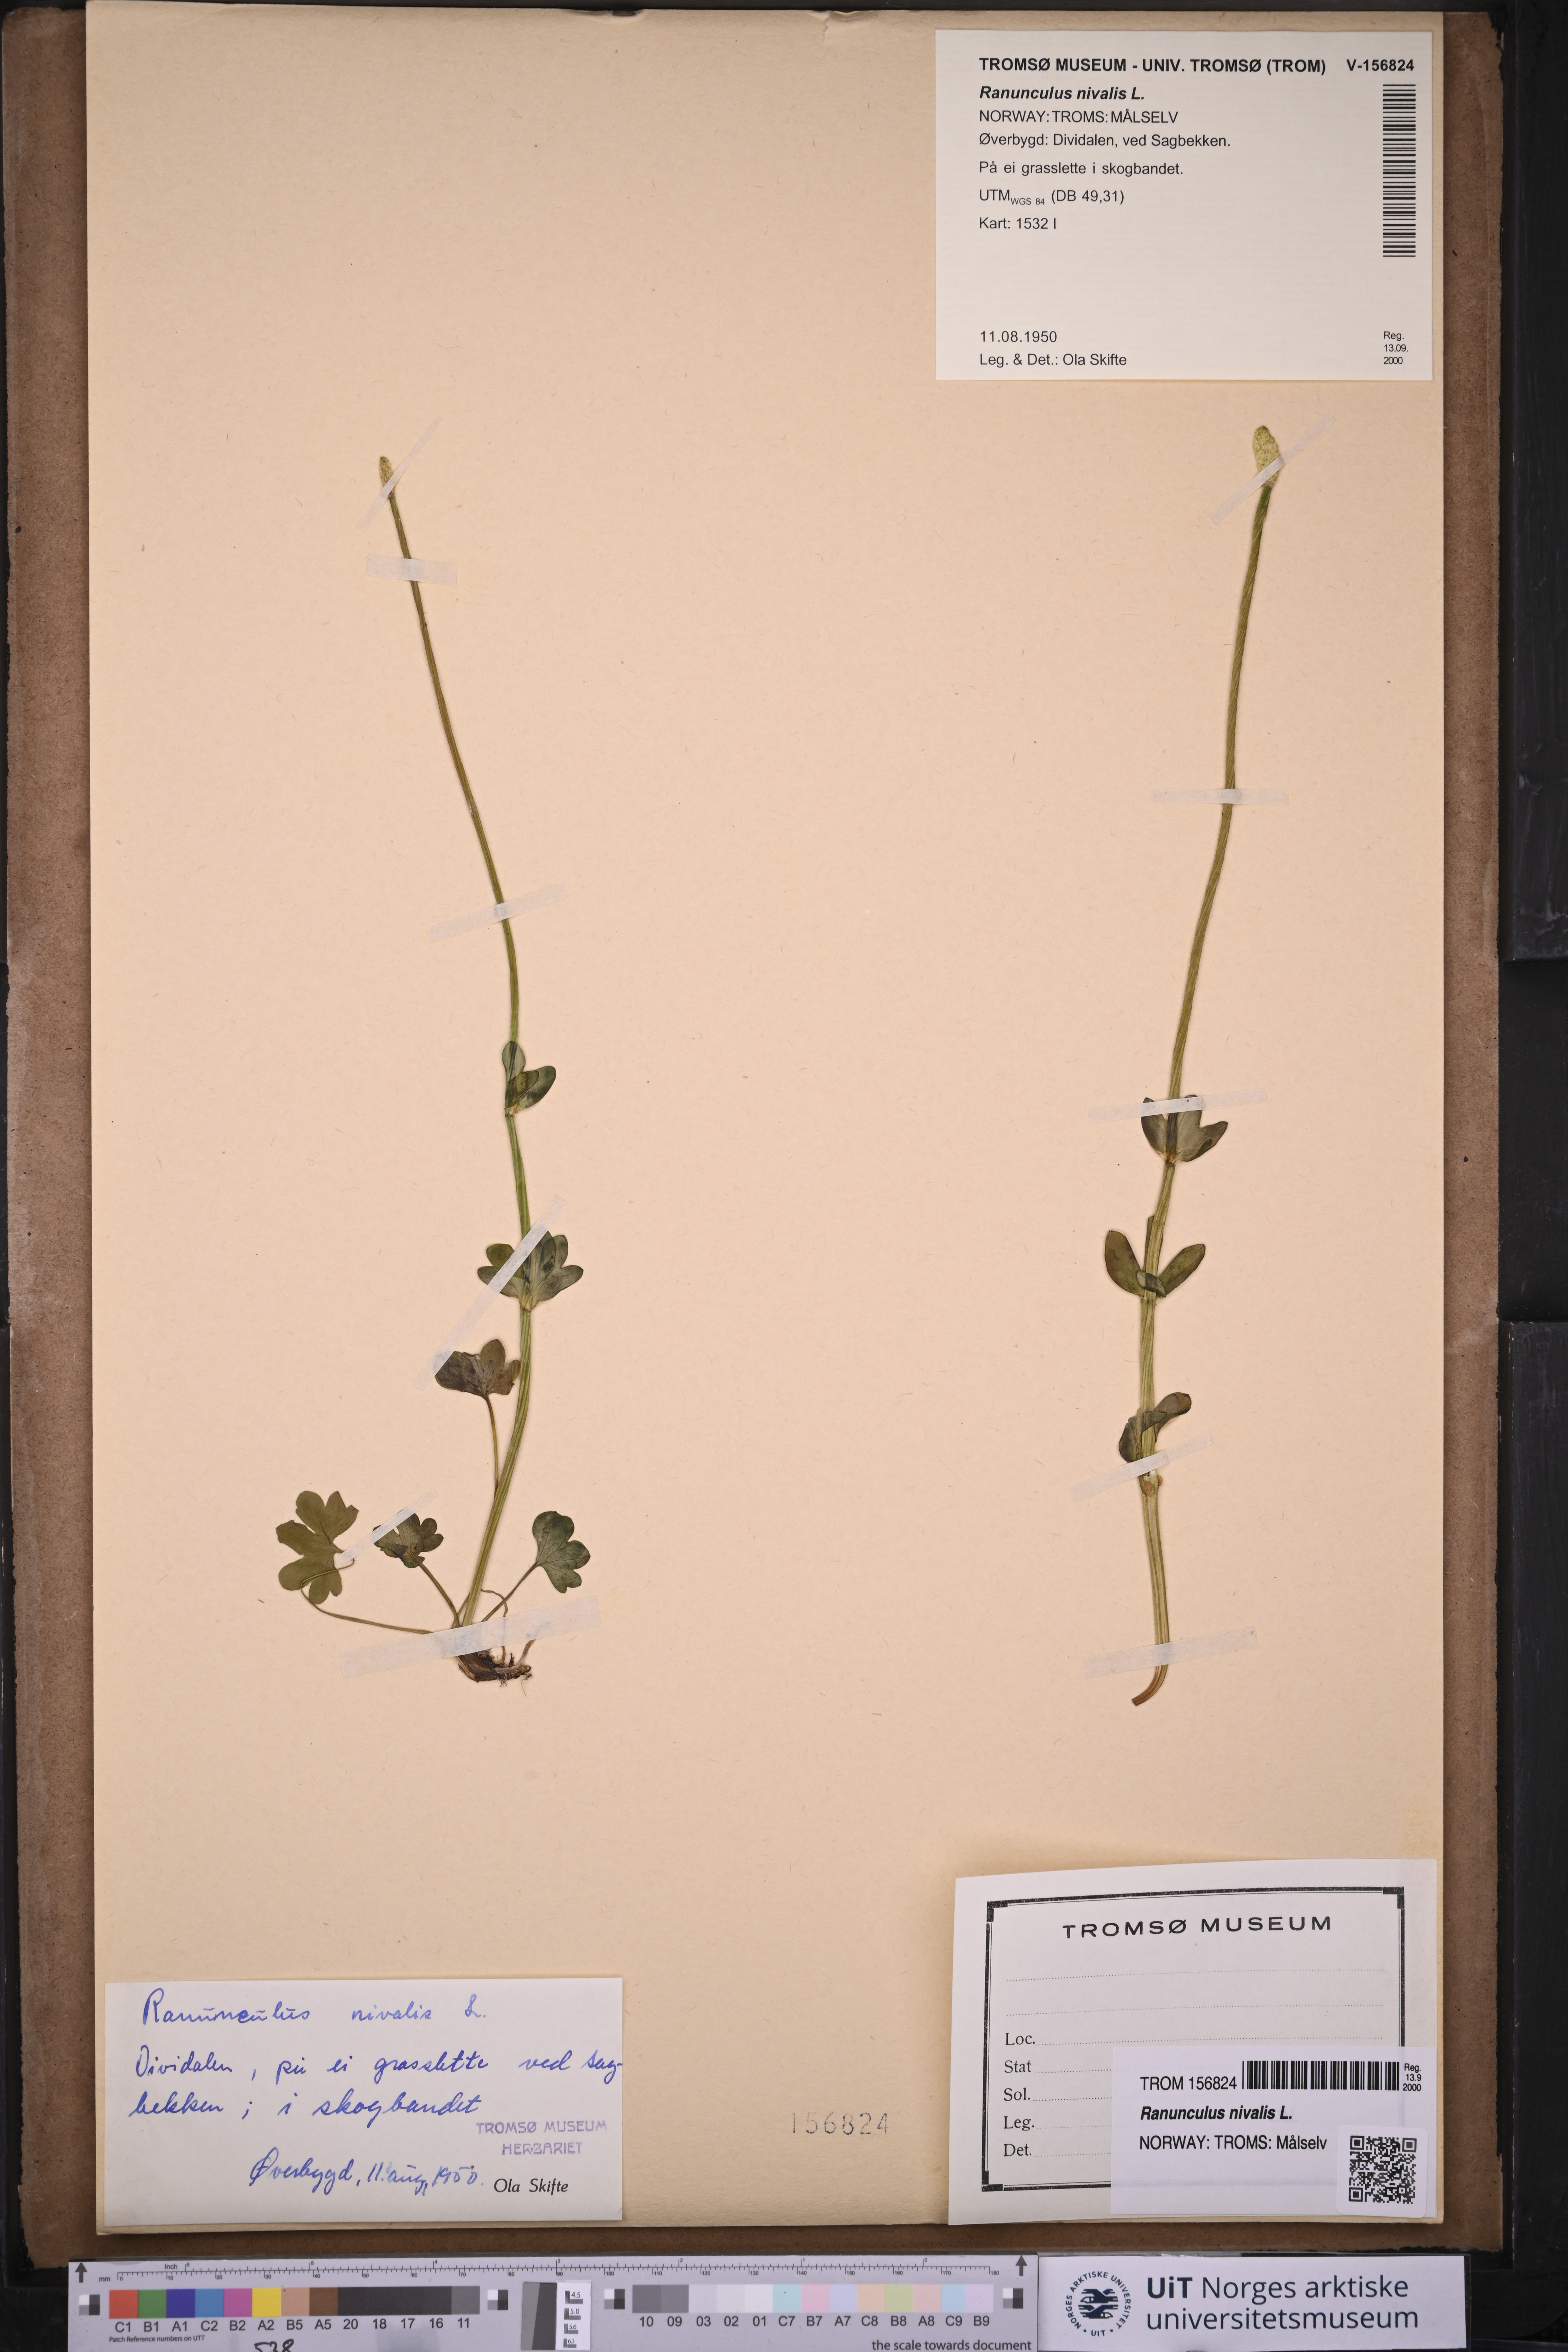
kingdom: Plantae
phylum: Tracheophyta
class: Magnoliopsida
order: Ranunculales
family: Ranunculaceae
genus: Ranunculus
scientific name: Ranunculus nivalis
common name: Snow buttercup
